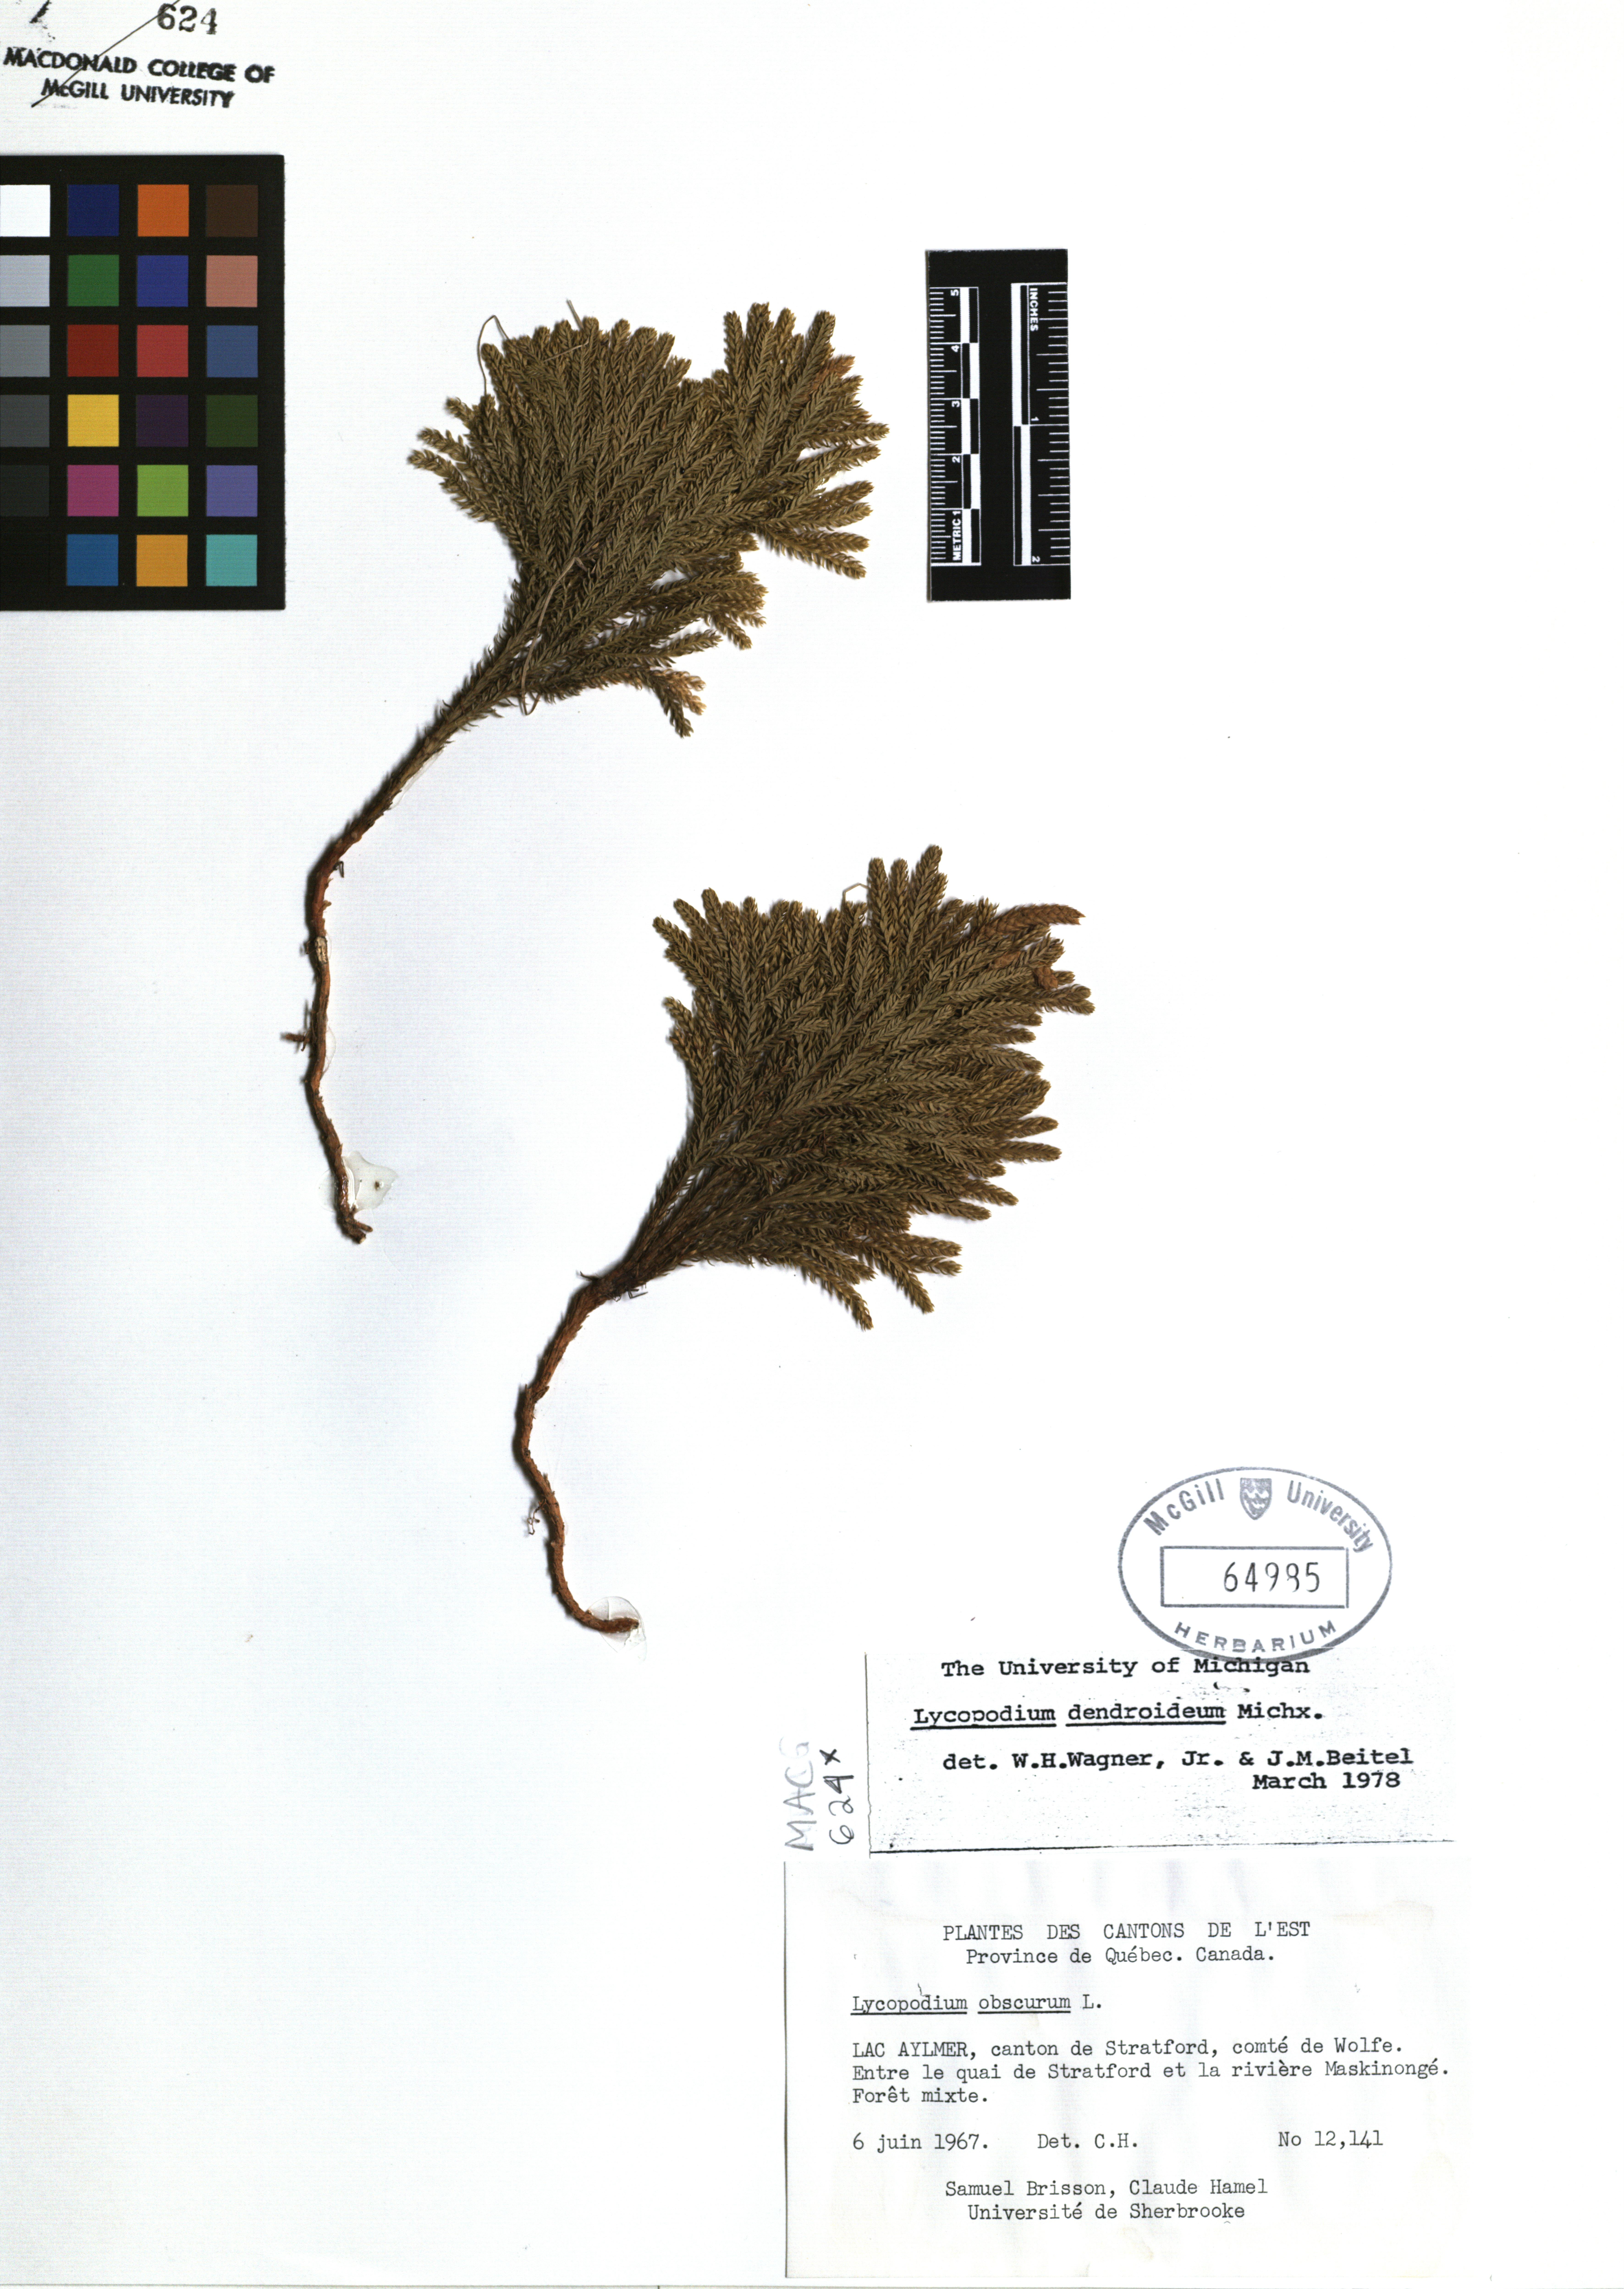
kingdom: Plantae
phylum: Tracheophyta
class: Lycopodiopsida
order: Lycopodiales
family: Lycopodiaceae
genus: Dendrolycopodium
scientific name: Dendrolycopodium dendroideum
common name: Northern tree-clubmoss
